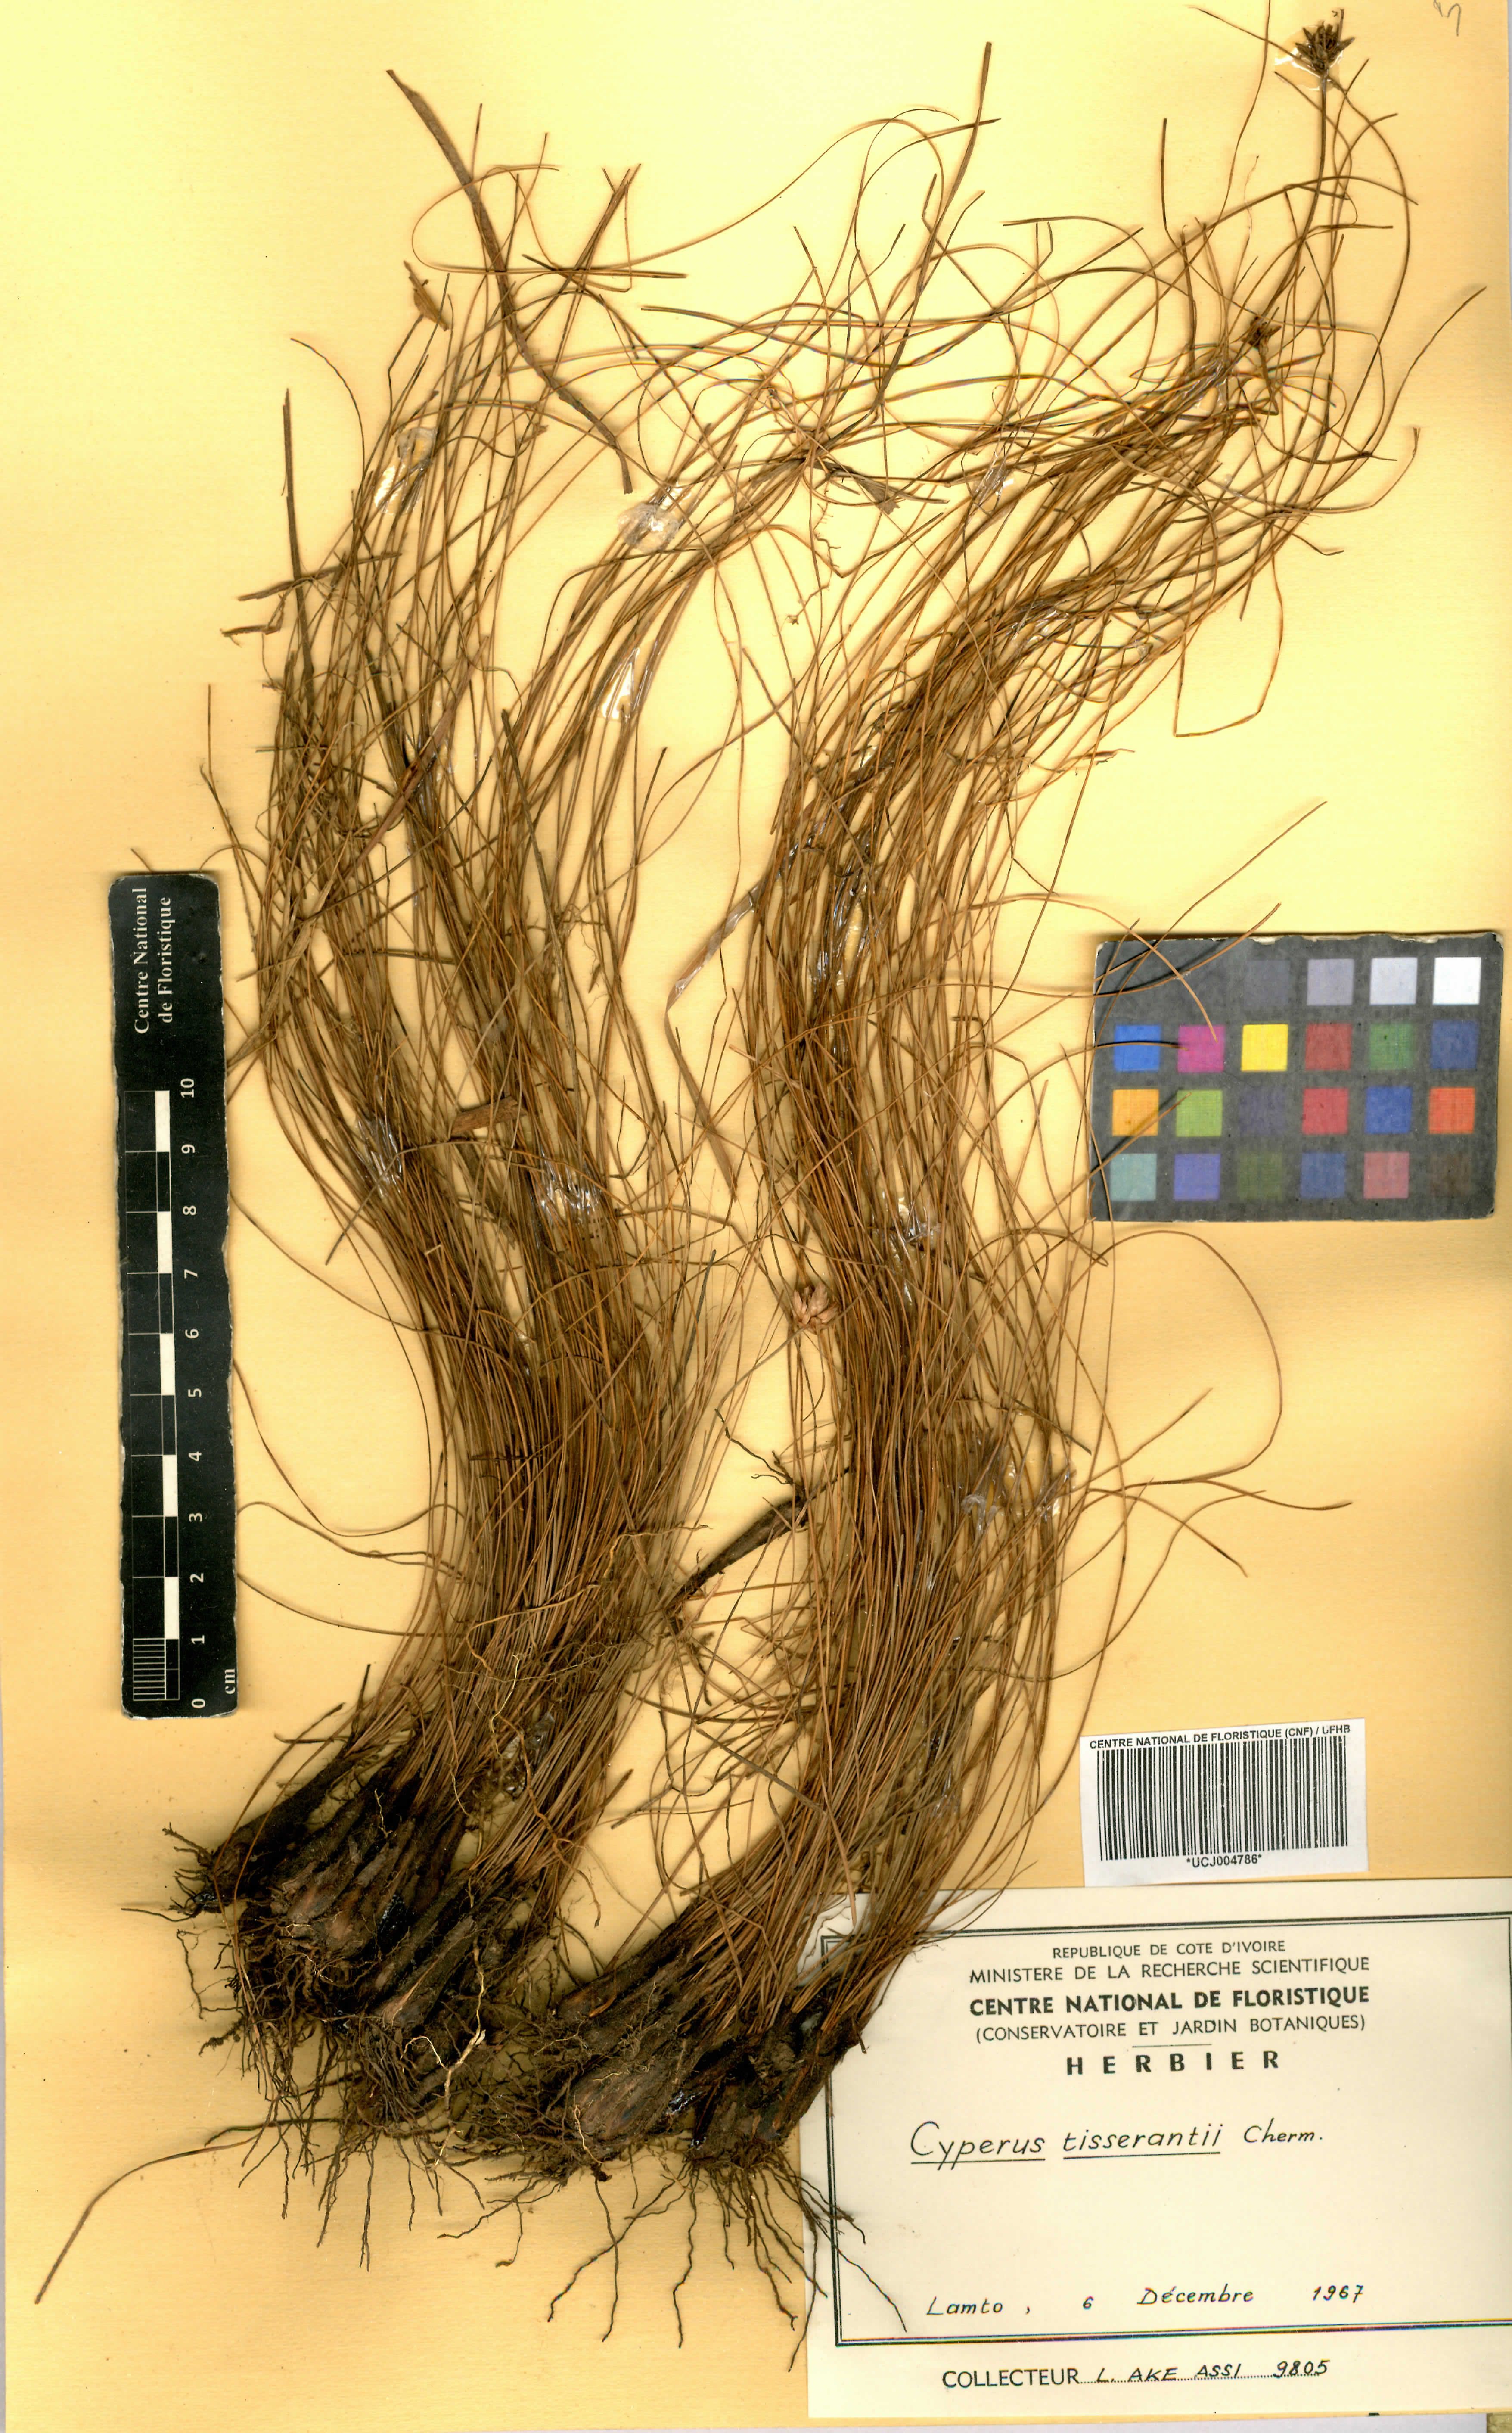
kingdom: Plantae
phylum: Tracheophyta
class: Liliopsida
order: Poales
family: Cyperaceae
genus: Cyperus
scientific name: Cyperus niveus
